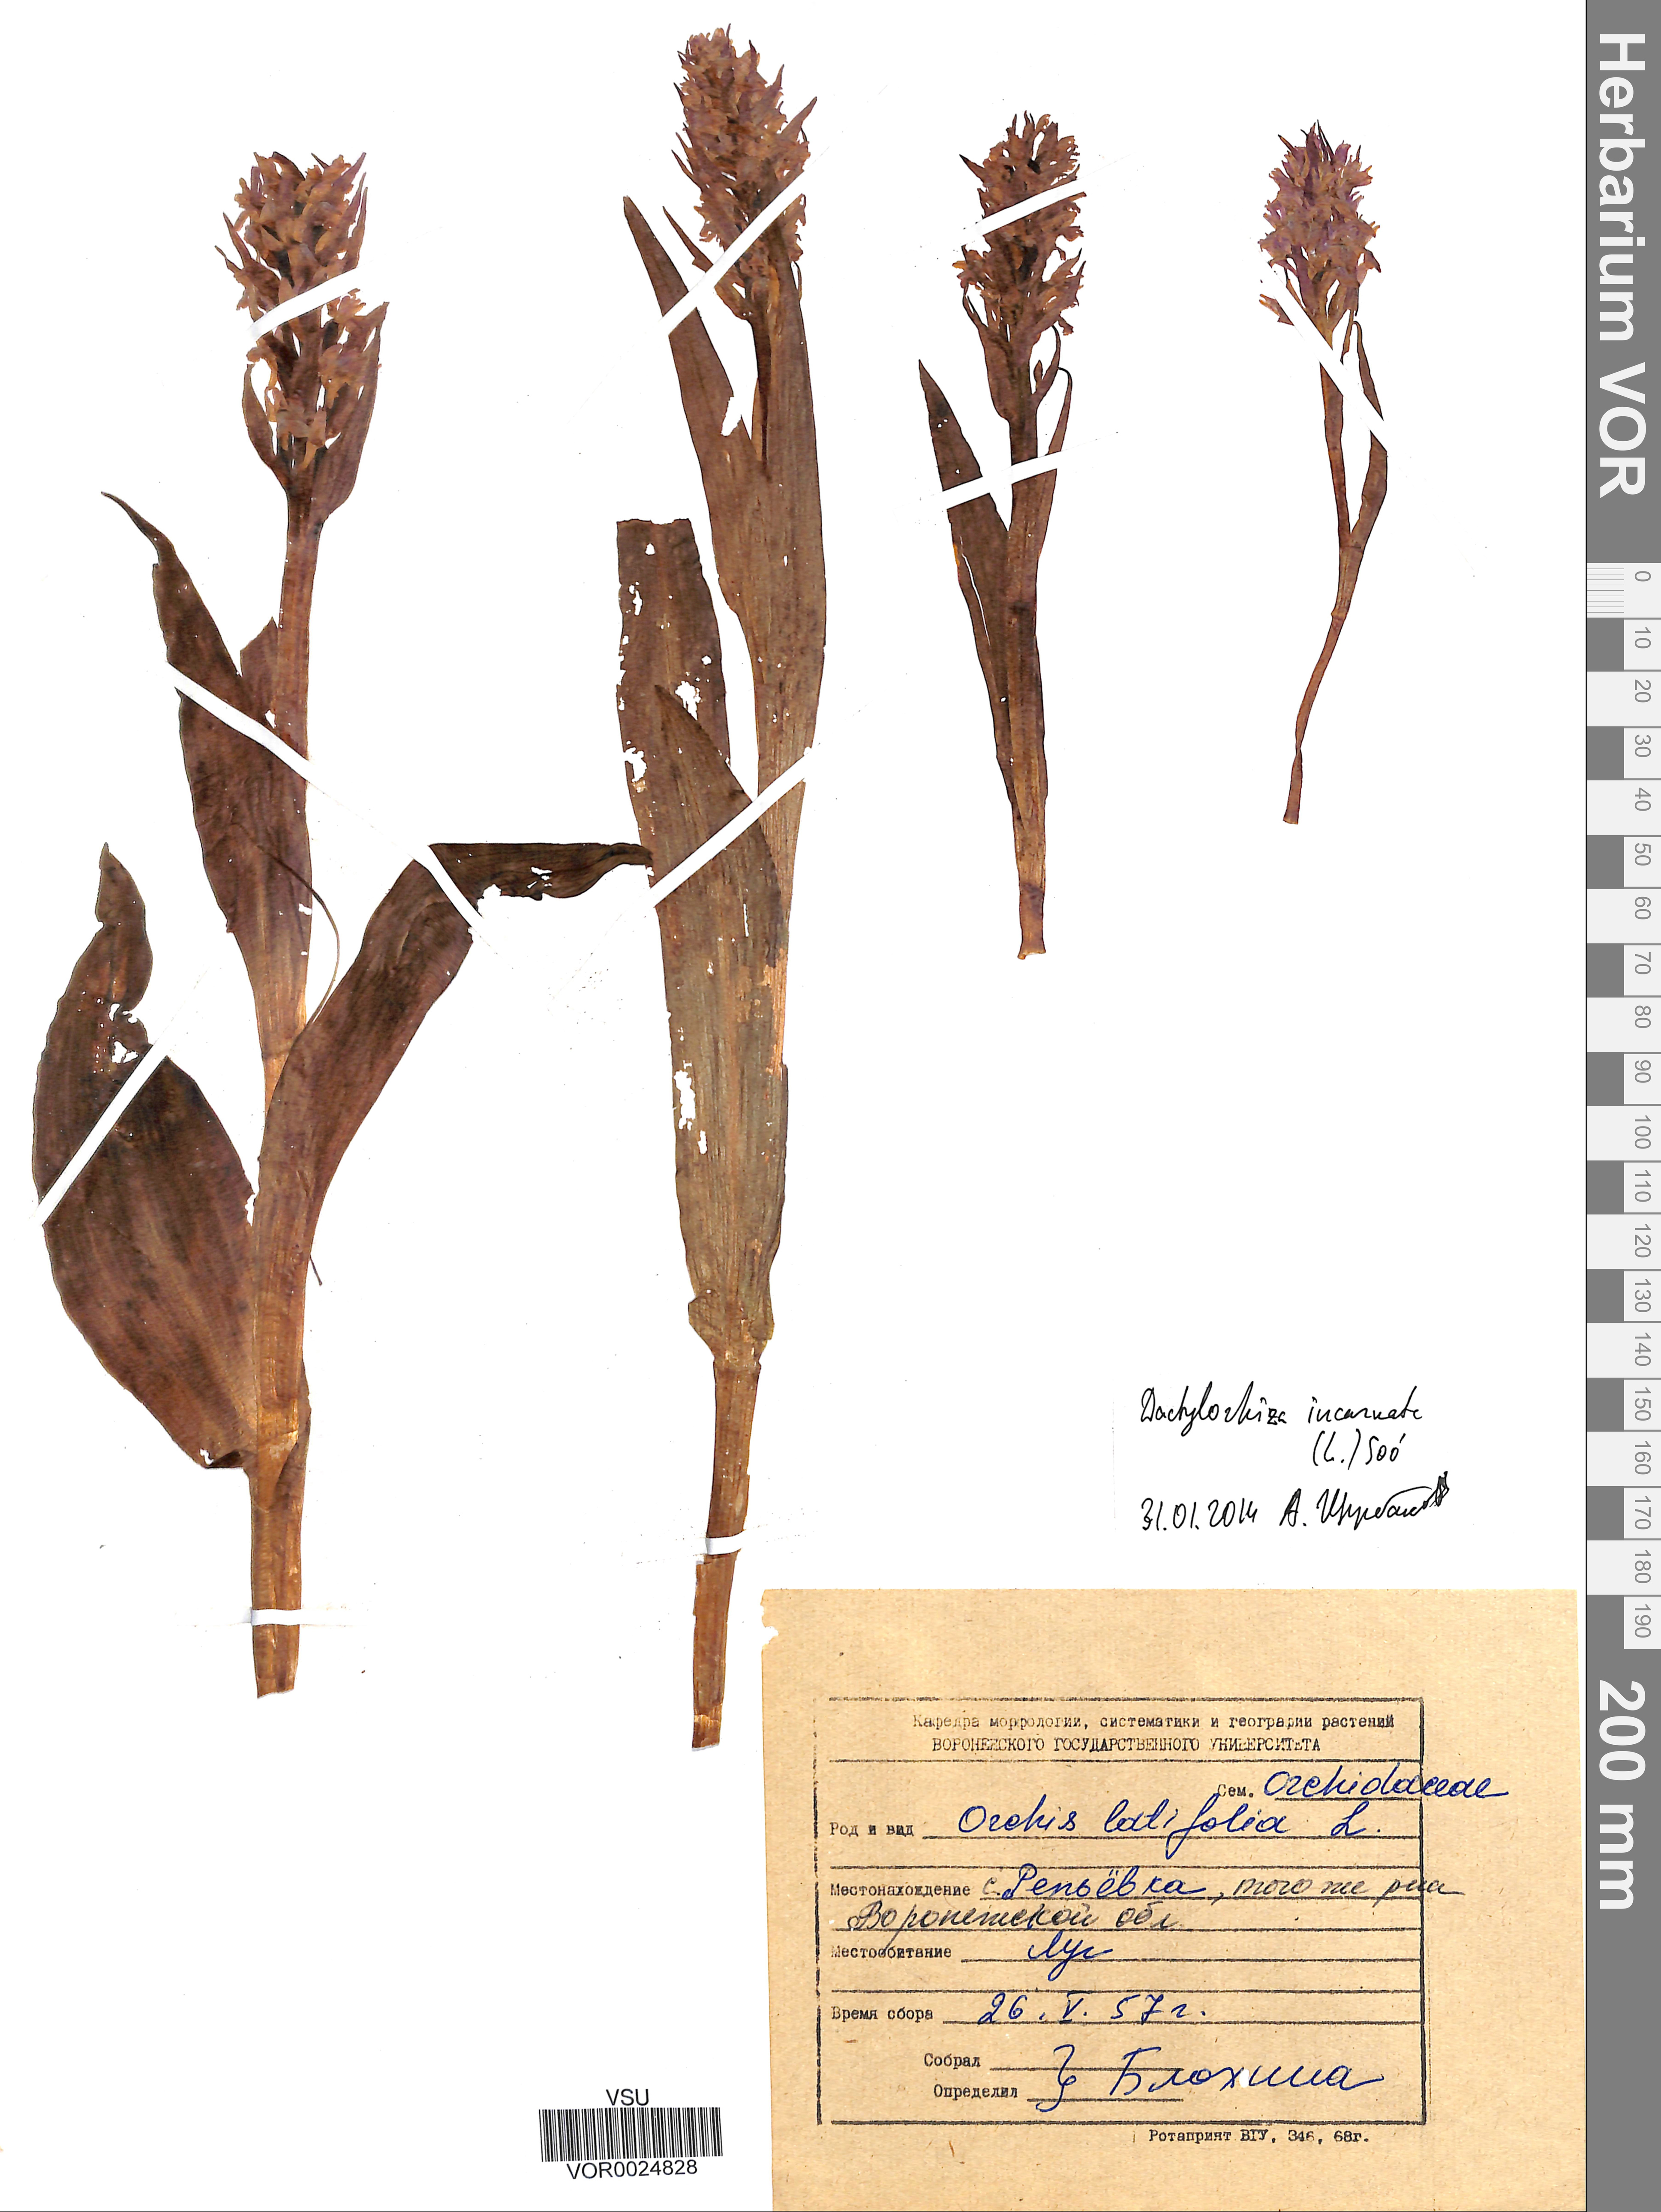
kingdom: Plantae
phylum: Tracheophyta
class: Liliopsida
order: Asparagales
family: Orchidaceae
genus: Dactylorhiza
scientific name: Dactylorhiza incarnata
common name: Early marsh-orchid
